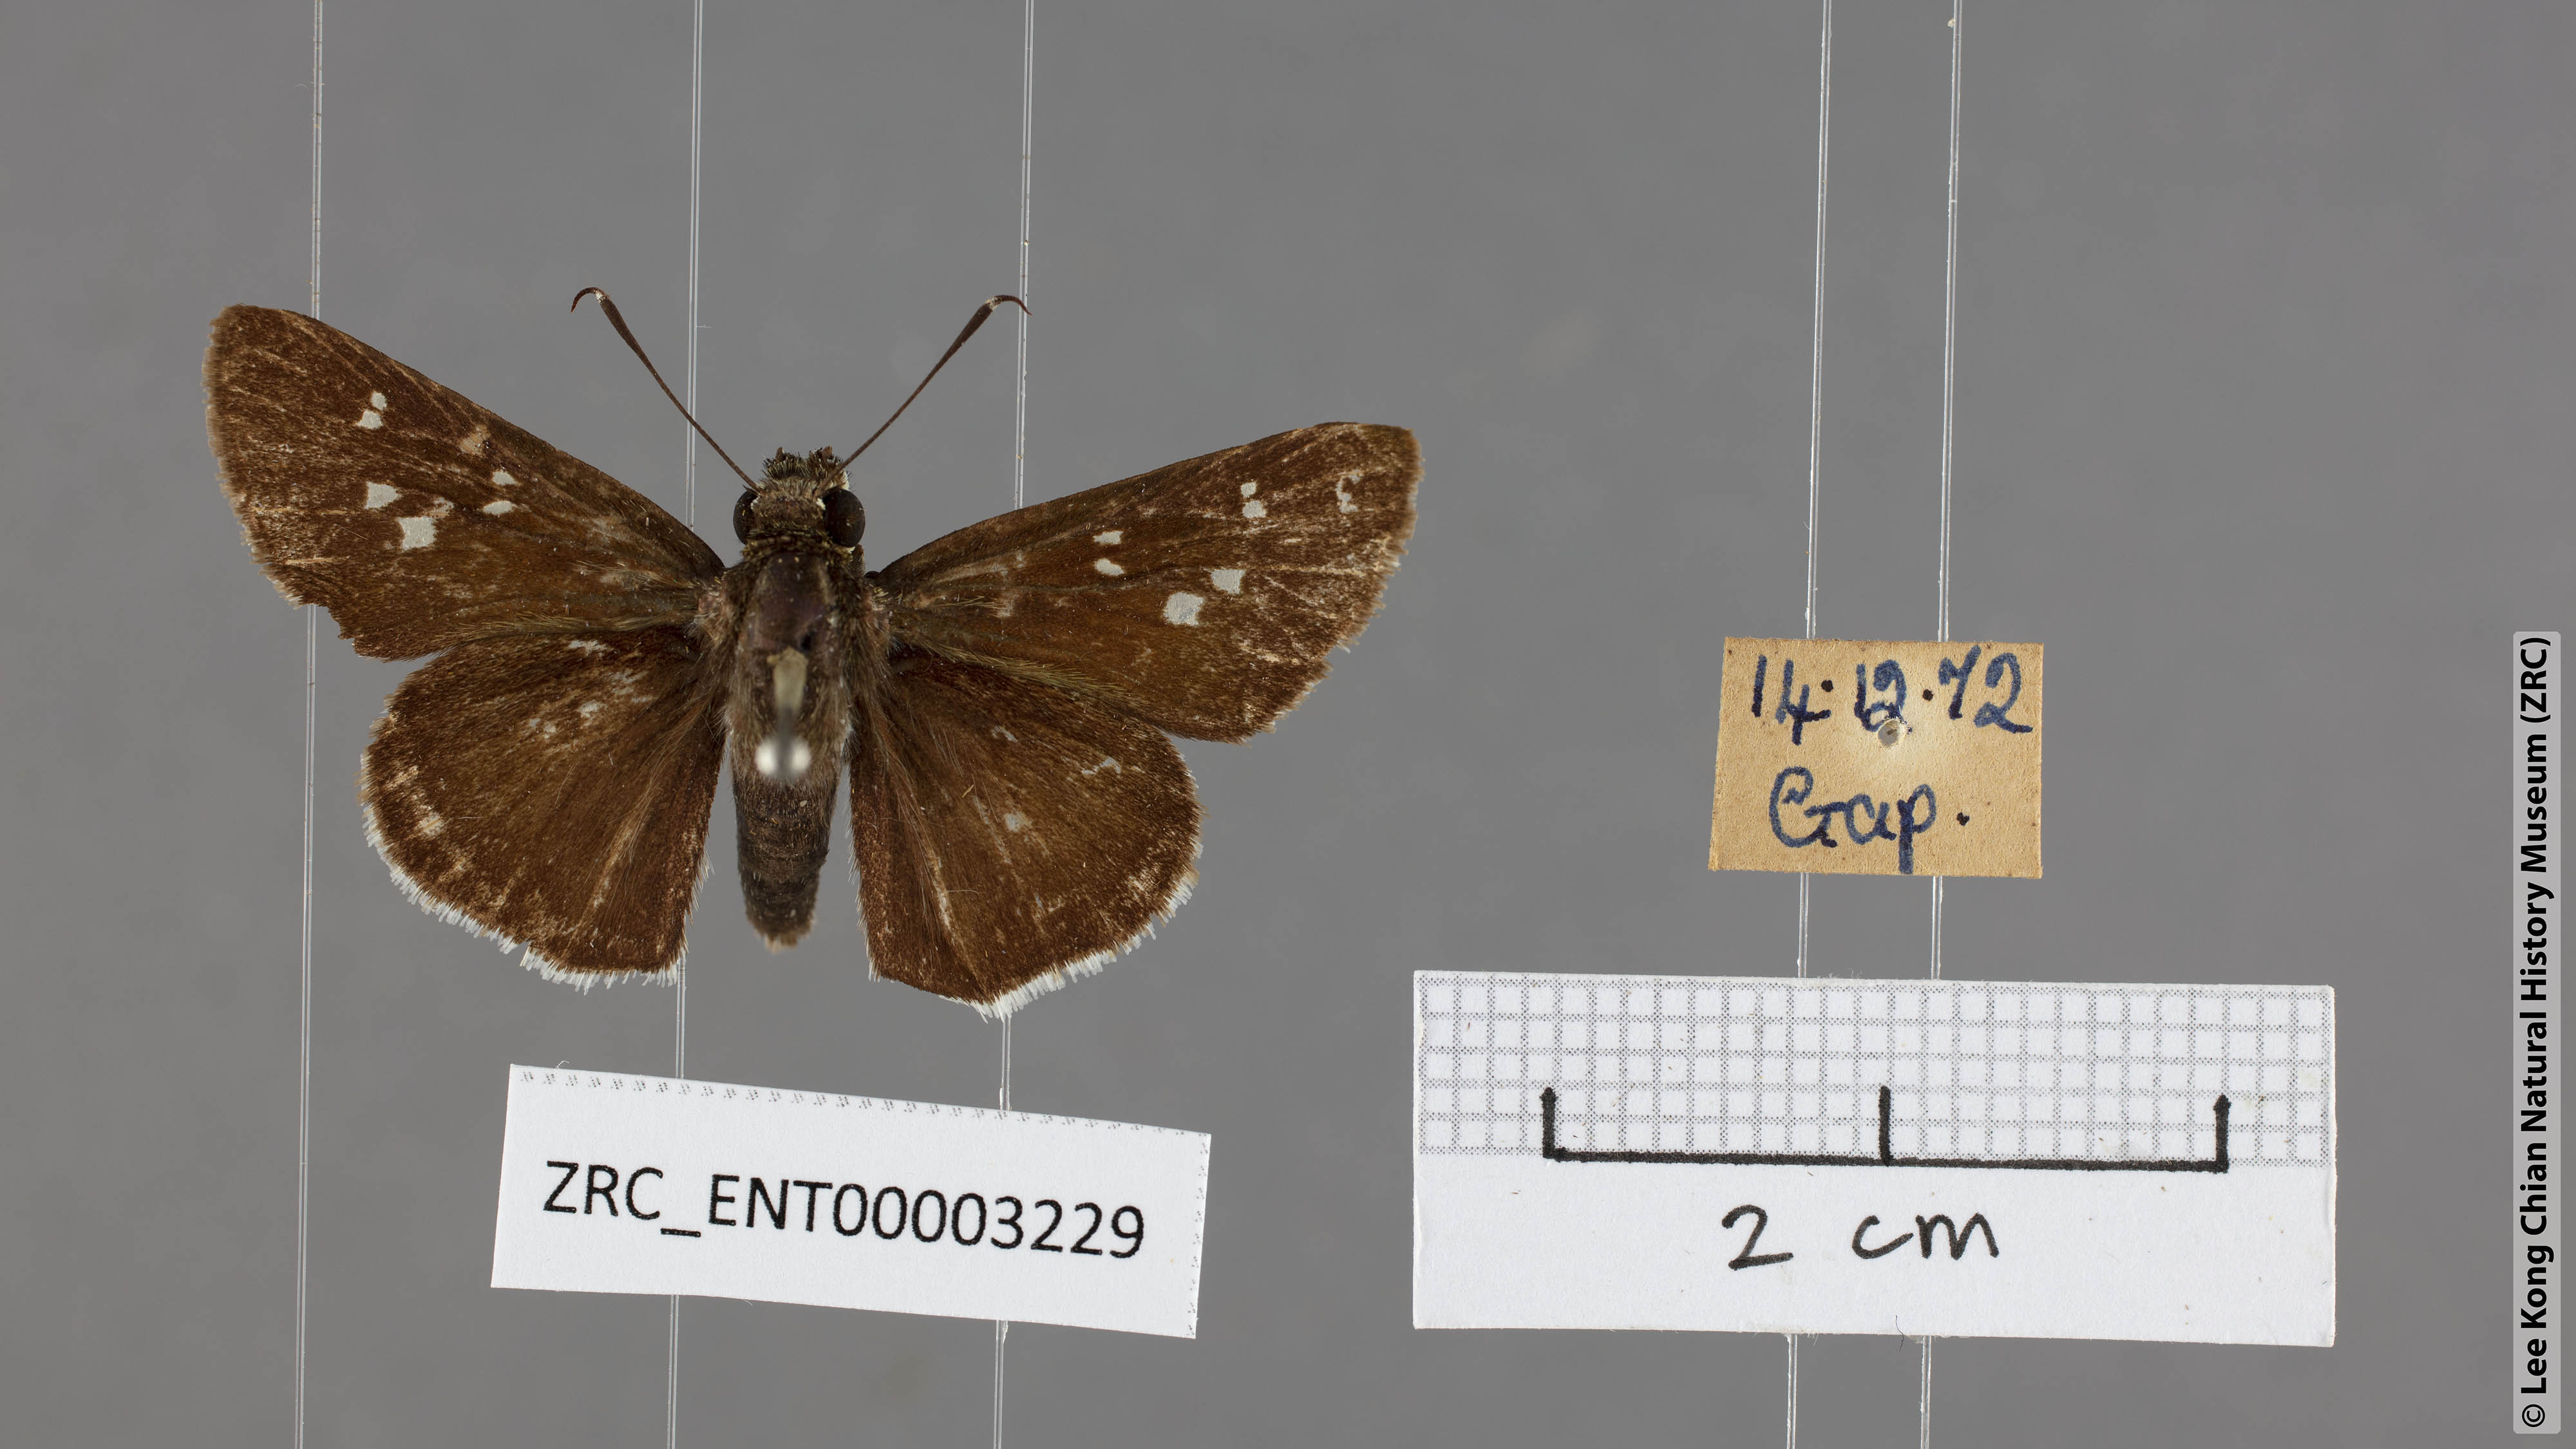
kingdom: Animalia
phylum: Arthropoda
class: Insecta
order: Lepidoptera
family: Hesperiidae
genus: Halpe
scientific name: Halpe insignis
